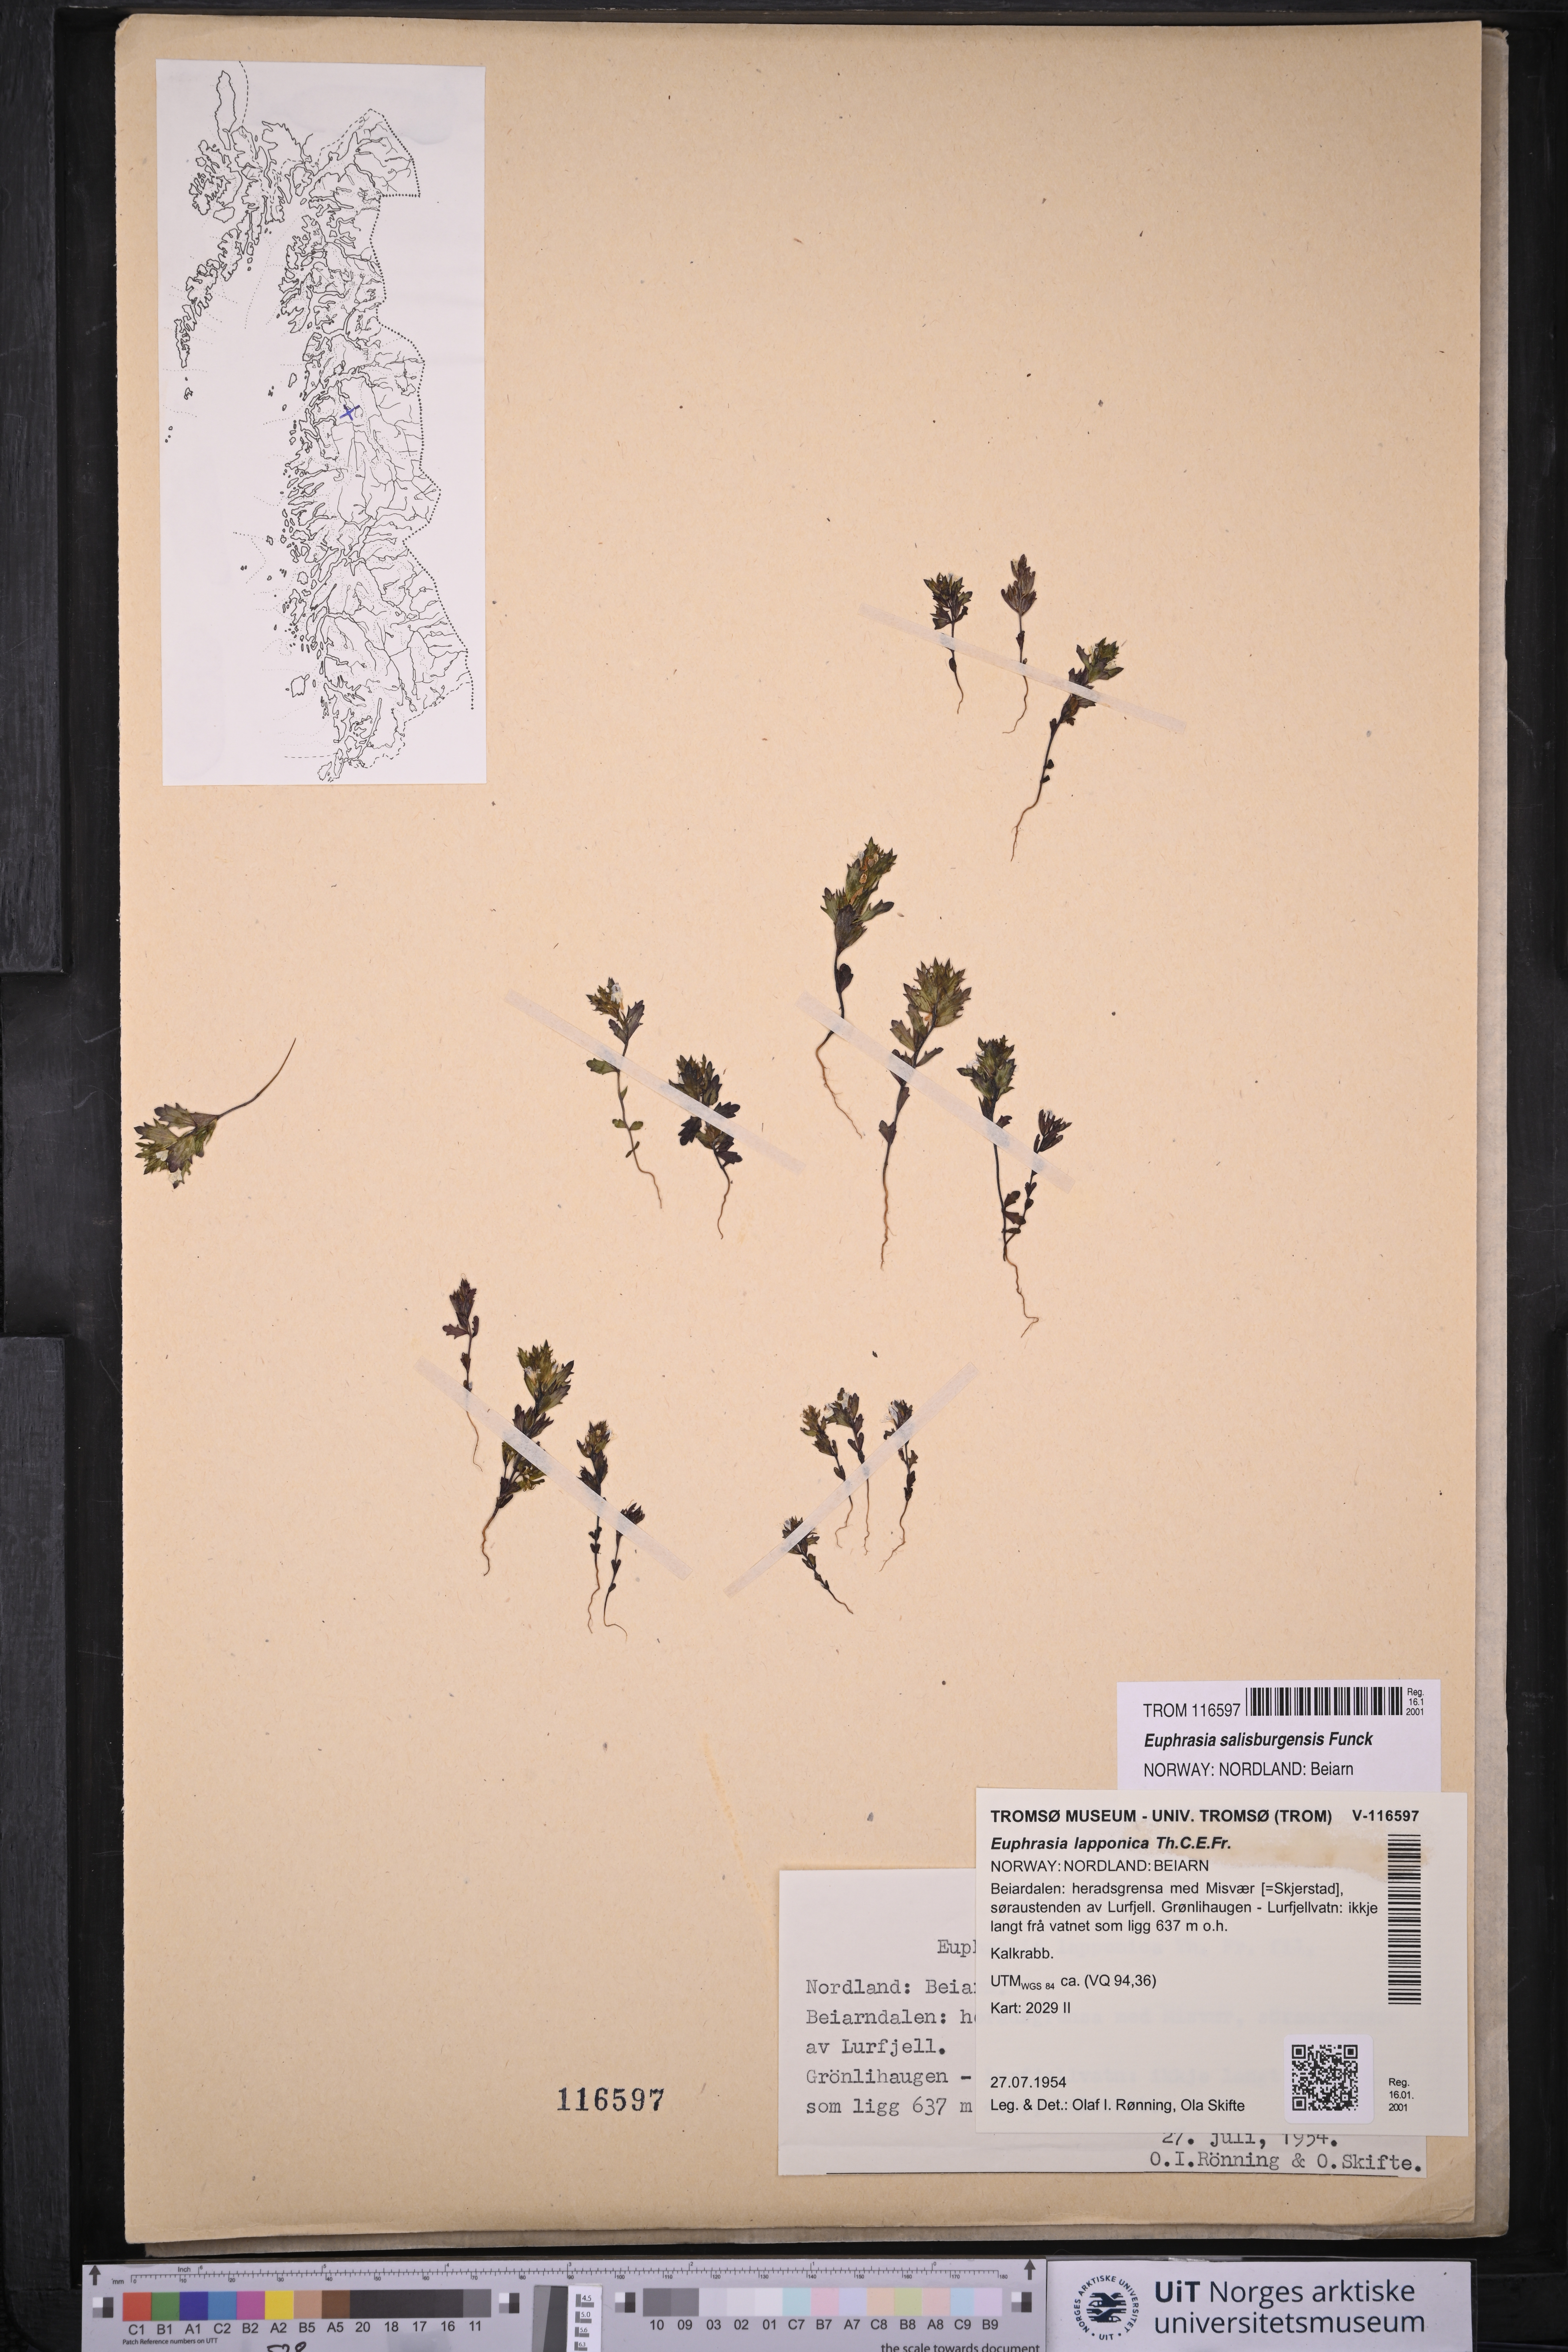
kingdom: Plantae
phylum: Tracheophyta
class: Magnoliopsida
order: Lamiales
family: Orobanchaceae
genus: Euphrasia
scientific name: Euphrasia salisburgensis
